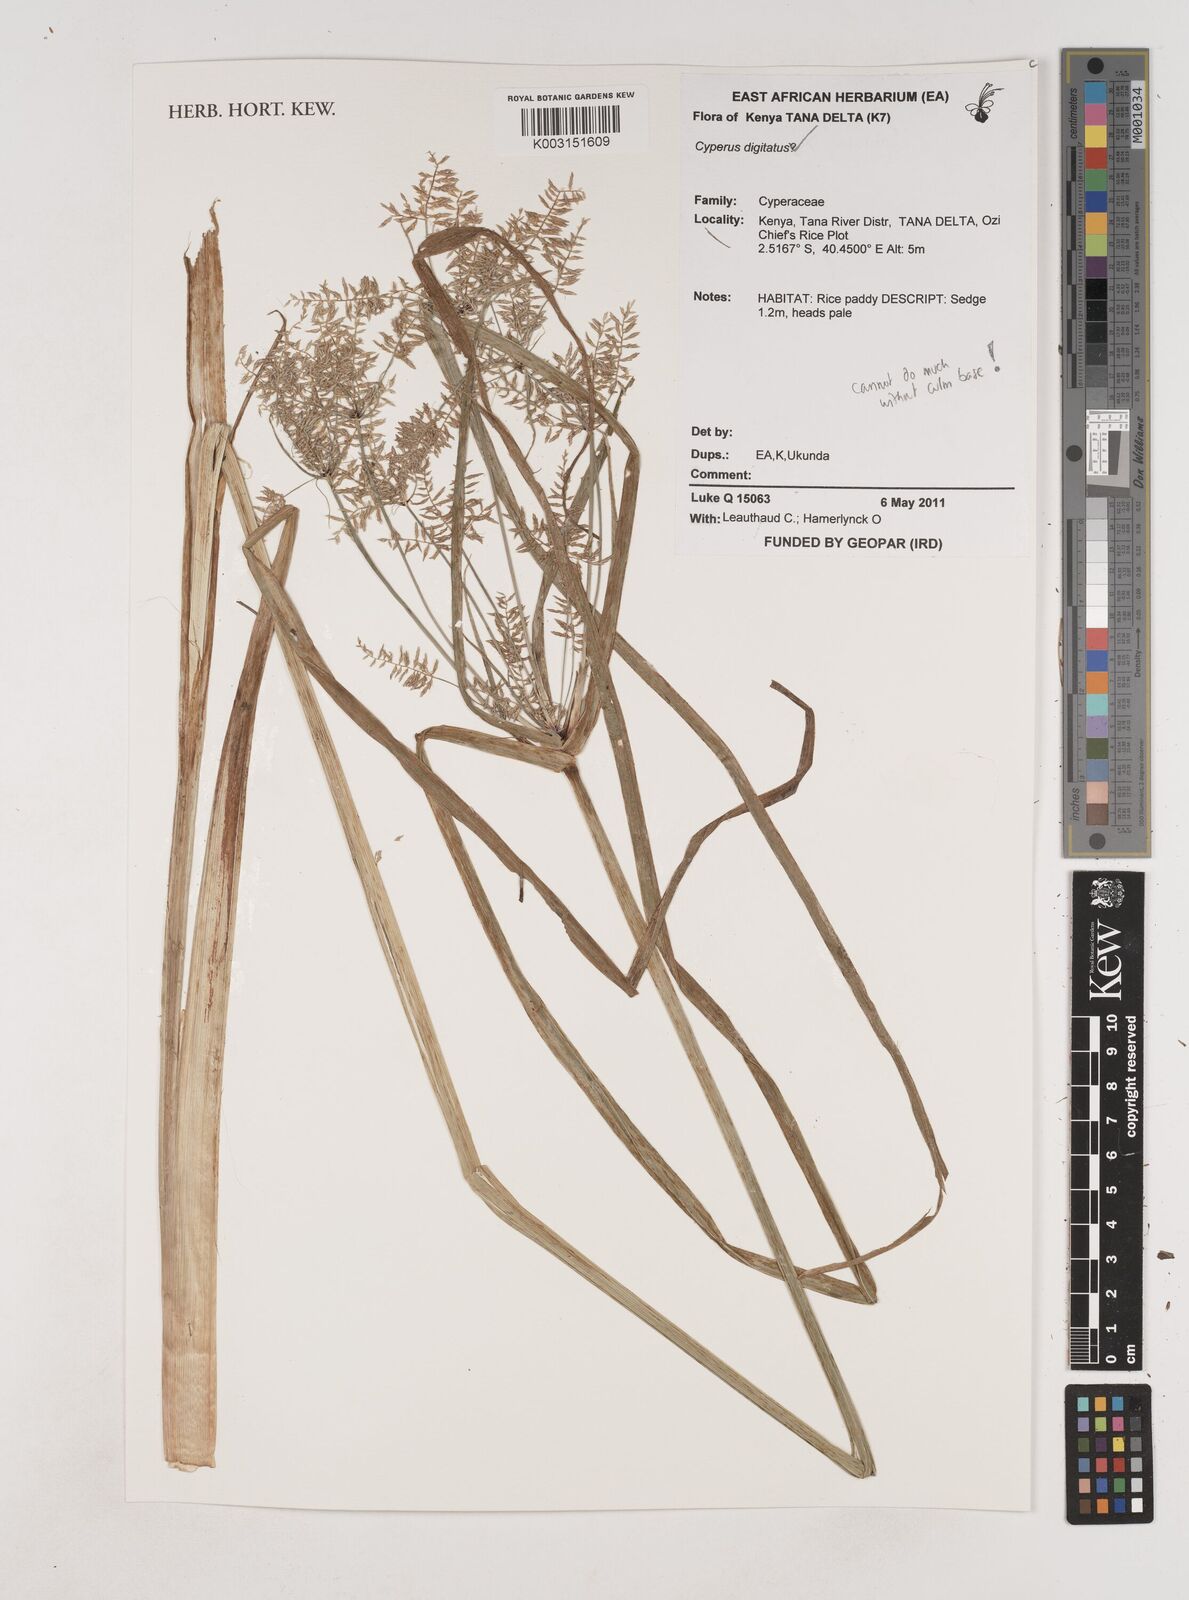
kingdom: Plantae
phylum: Tracheophyta
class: Liliopsida
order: Poales
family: Cyperaceae
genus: Cyperus
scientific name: Cyperus digitatus
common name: Finger flatsedge
